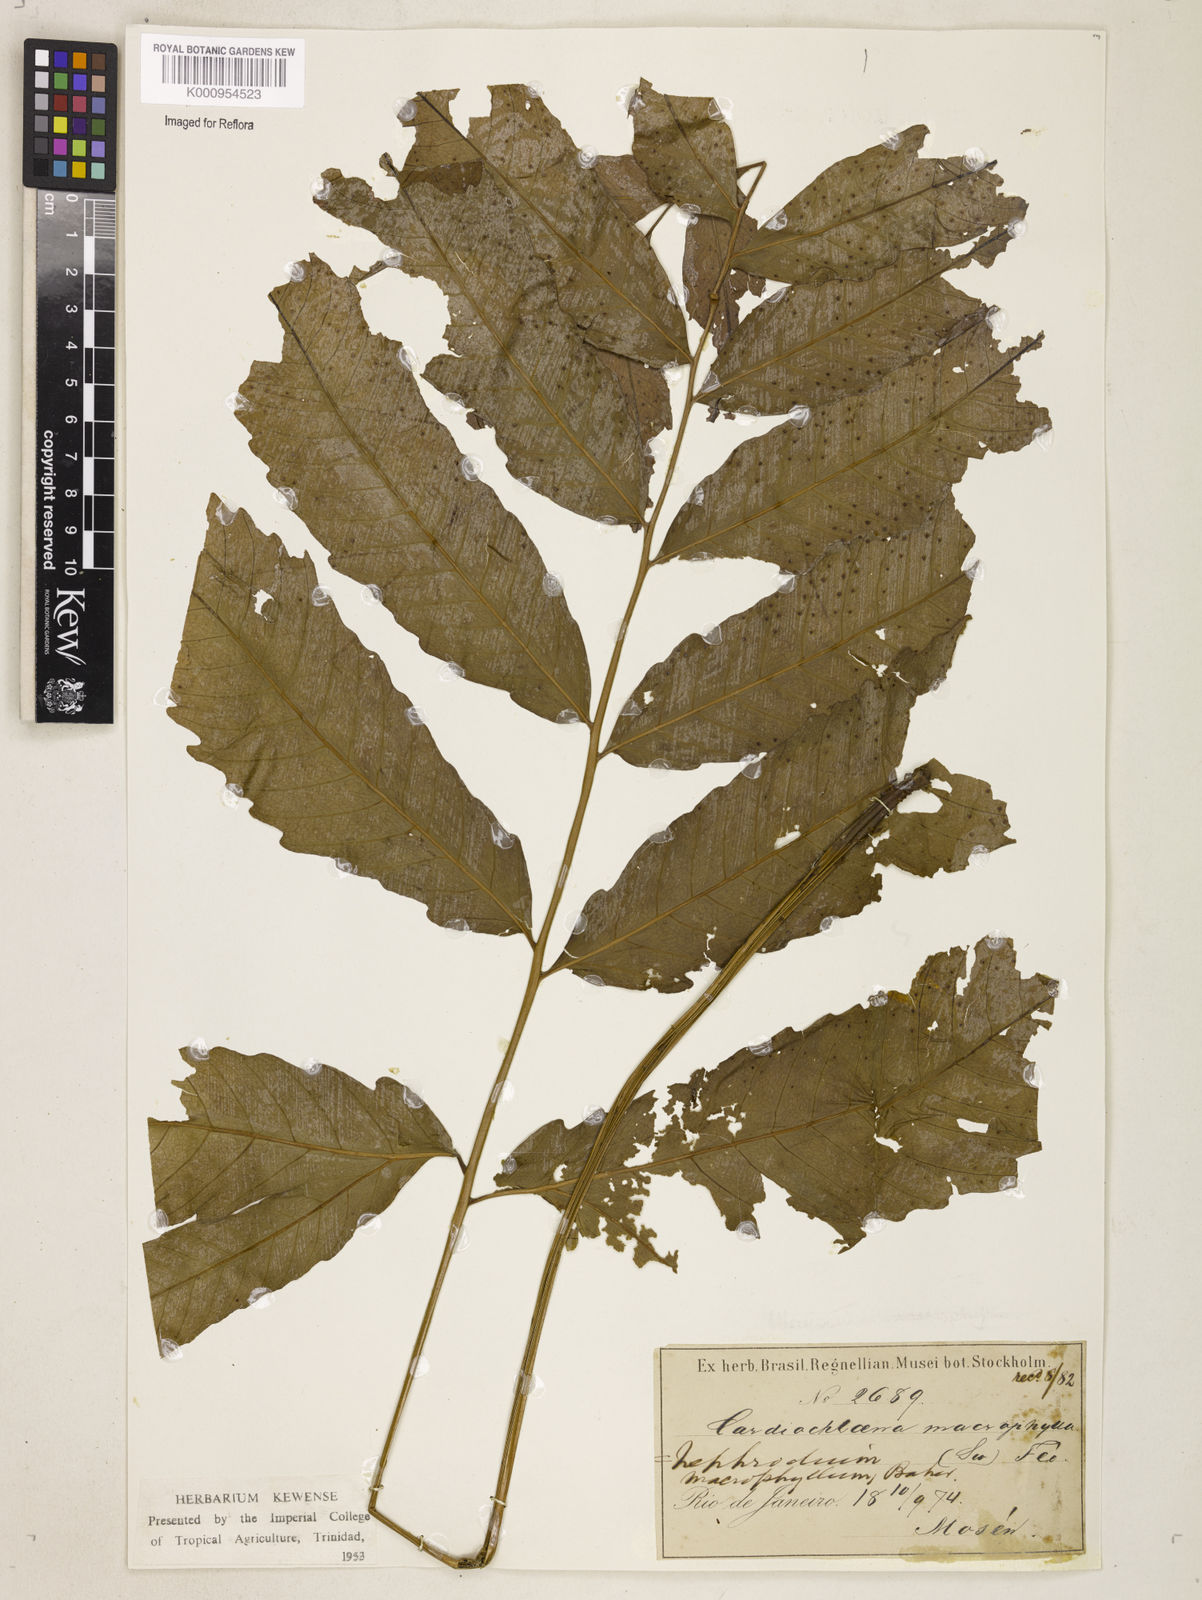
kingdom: Plantae
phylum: Tracheophyta
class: Polypodiopsida
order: Polypodiales
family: Tectariaceae
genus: Tectaria
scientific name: Tectaria incisa
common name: Incised halberd fern
